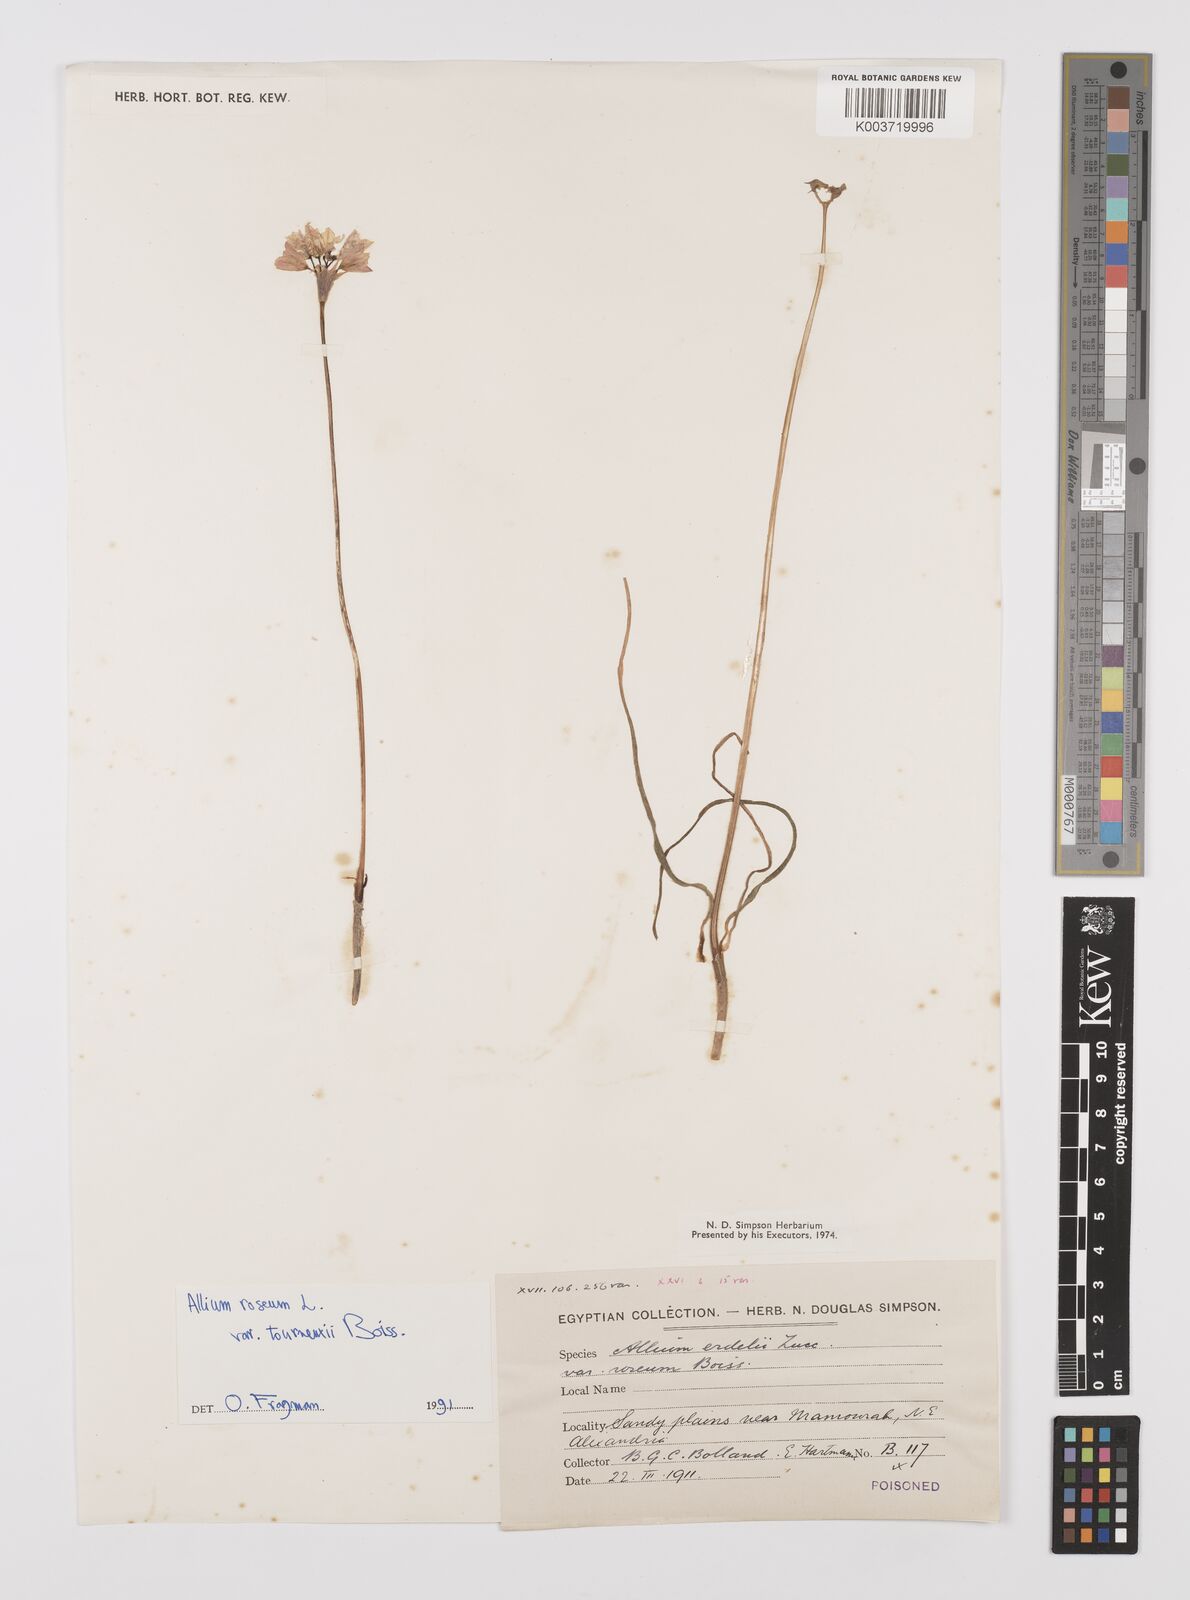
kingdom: Plantae
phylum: Tracheophyta
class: Liliopsida
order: Asparagales
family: Amaryllidaceae
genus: Allium
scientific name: Allium roseum
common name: Rosy garlic
